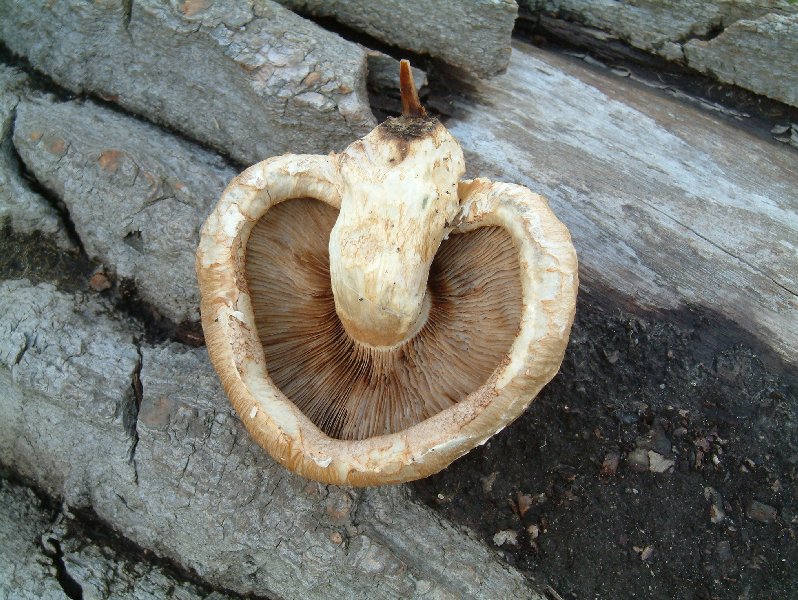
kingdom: Fungi
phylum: Basidiomycota
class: Agaricomycetes
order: Agaricales
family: Strophariaceae
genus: Pholiota
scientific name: Pholiota populnea
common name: poppel-kæmpeskælhat
